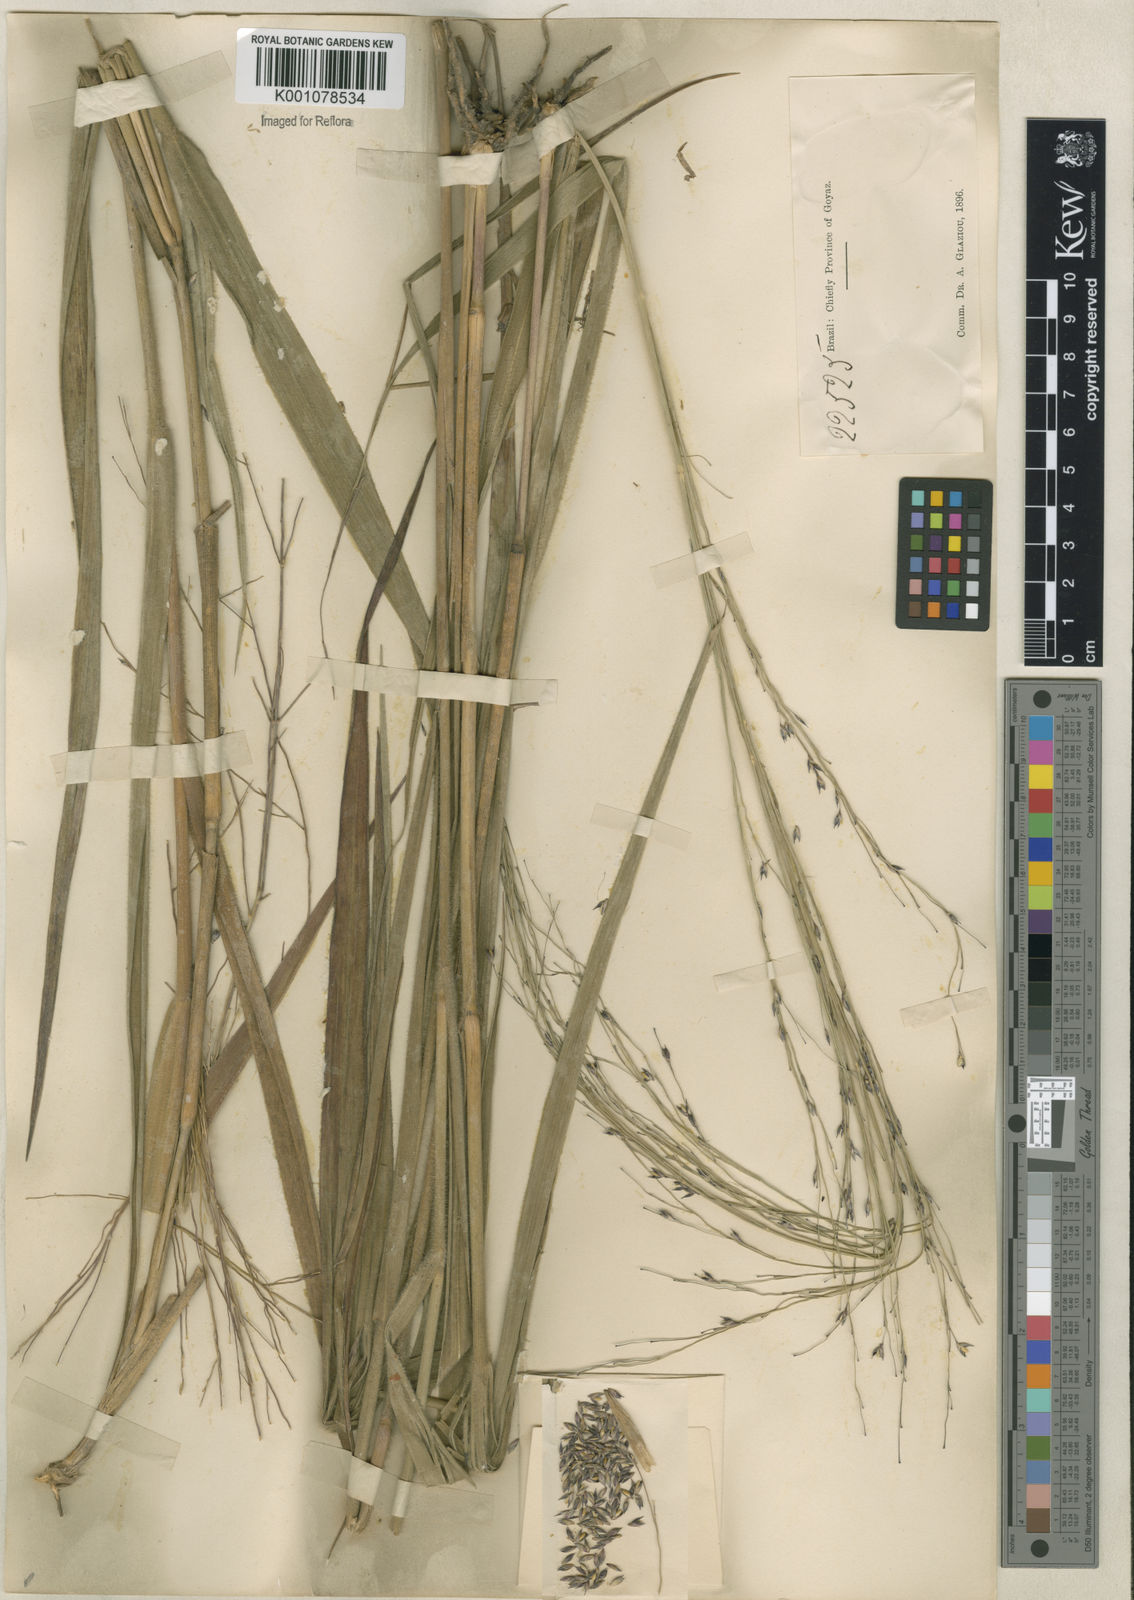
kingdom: Plantae
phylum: Tracheophyta
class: Liliopsida
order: Poales
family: Poaceae
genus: Panicum
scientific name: Panicum ligulare
